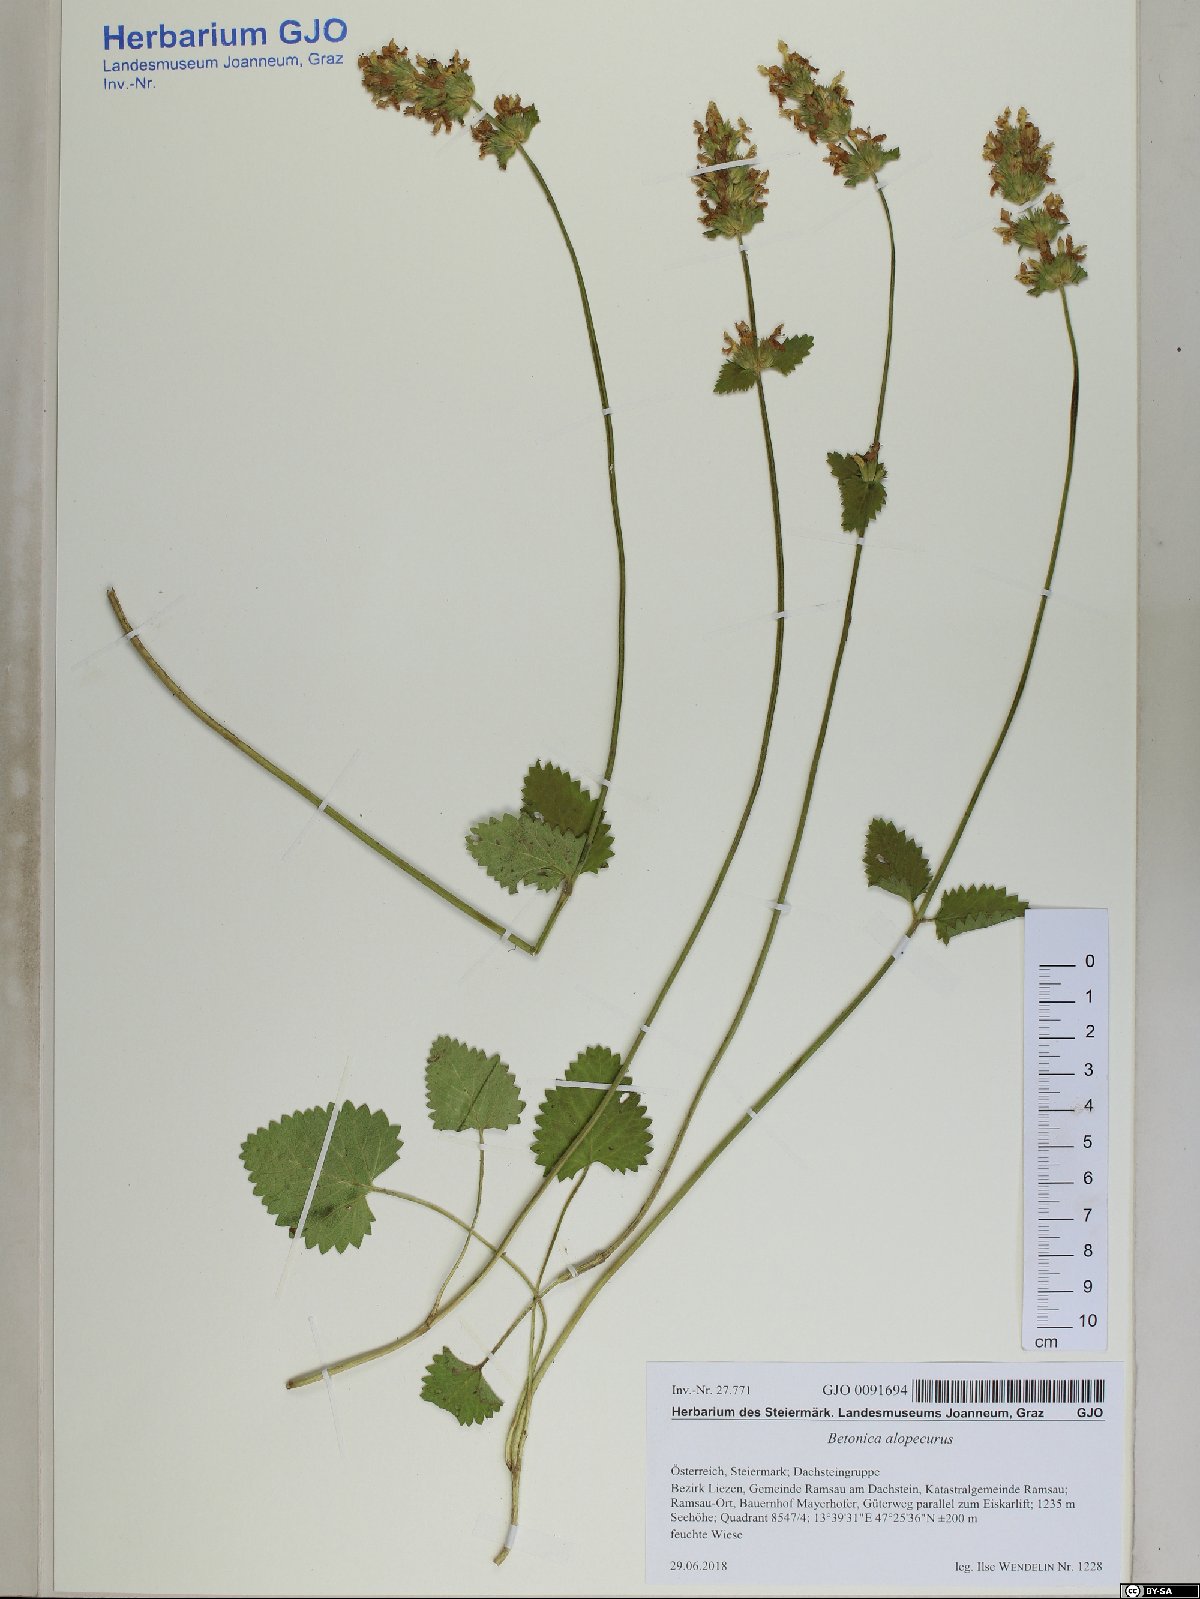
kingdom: Plantae
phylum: Tracheophyta
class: Magnoliopsida
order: Lamiales
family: Lamiaceae
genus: Betonica
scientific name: Betonica alopecuros
